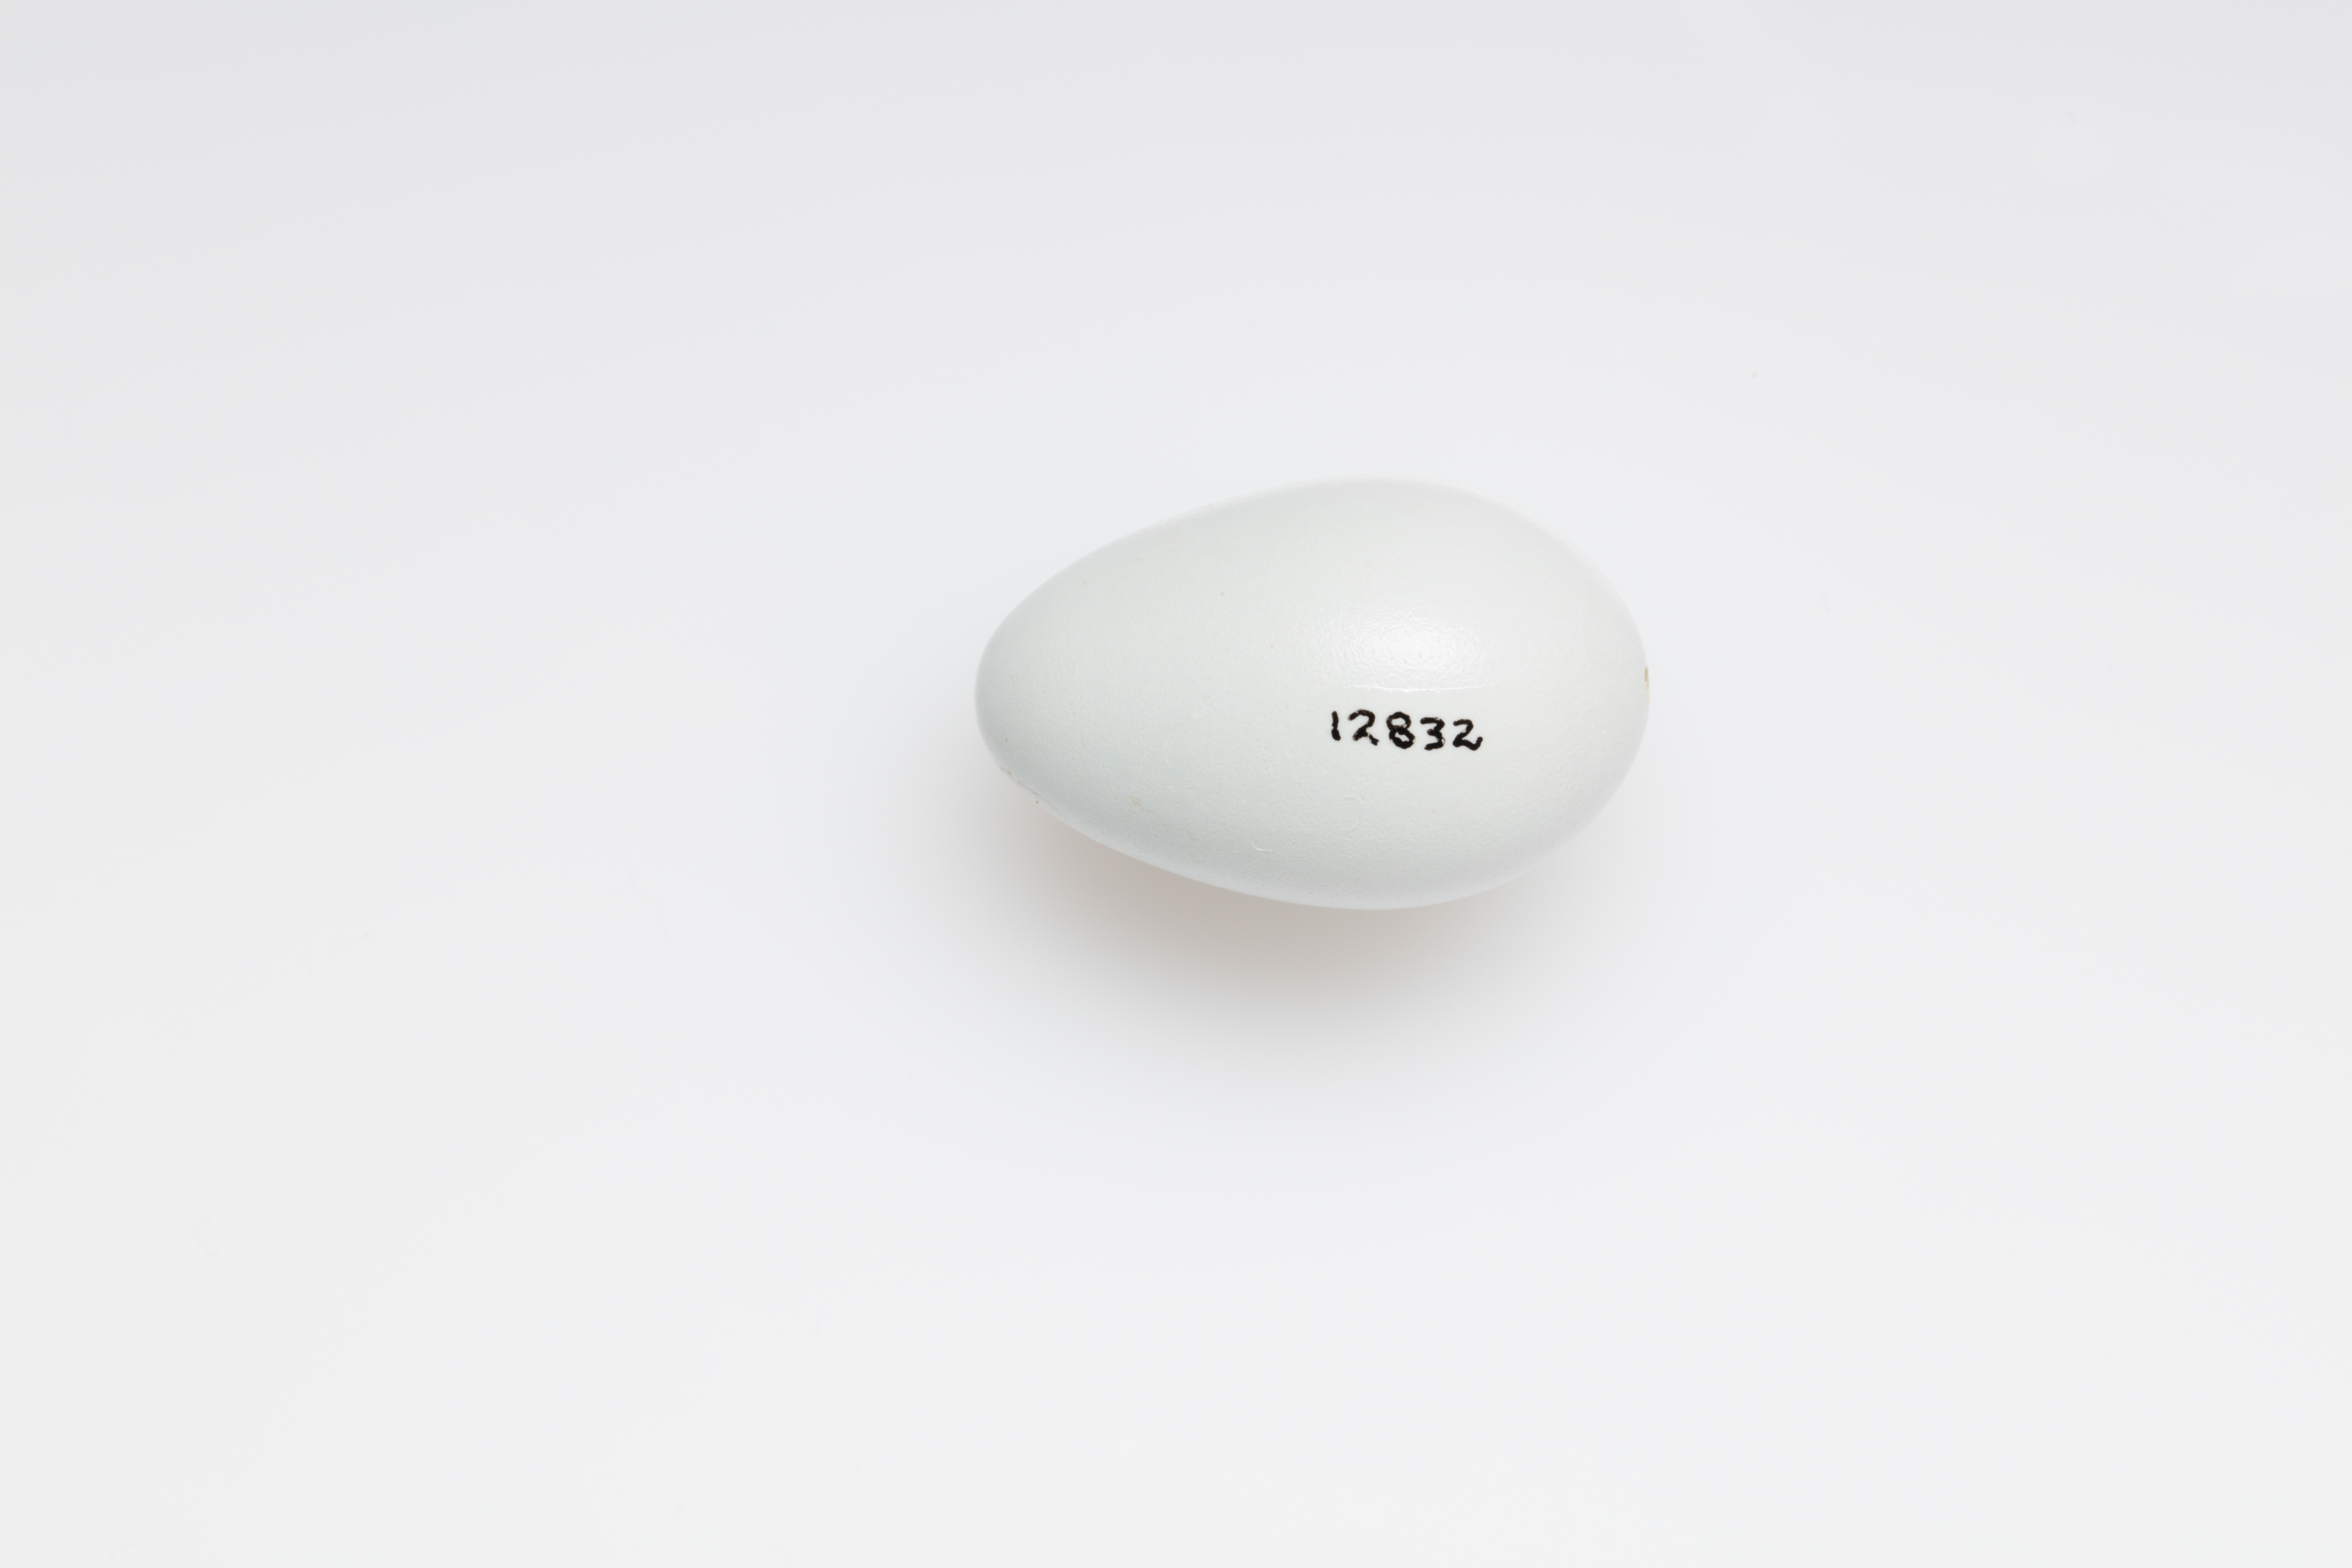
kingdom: Animalia
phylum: Chordata
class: Aves
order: Passeriformes
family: Sturnidae
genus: Sturnus
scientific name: Sturnus vulgaris
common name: Common starling
